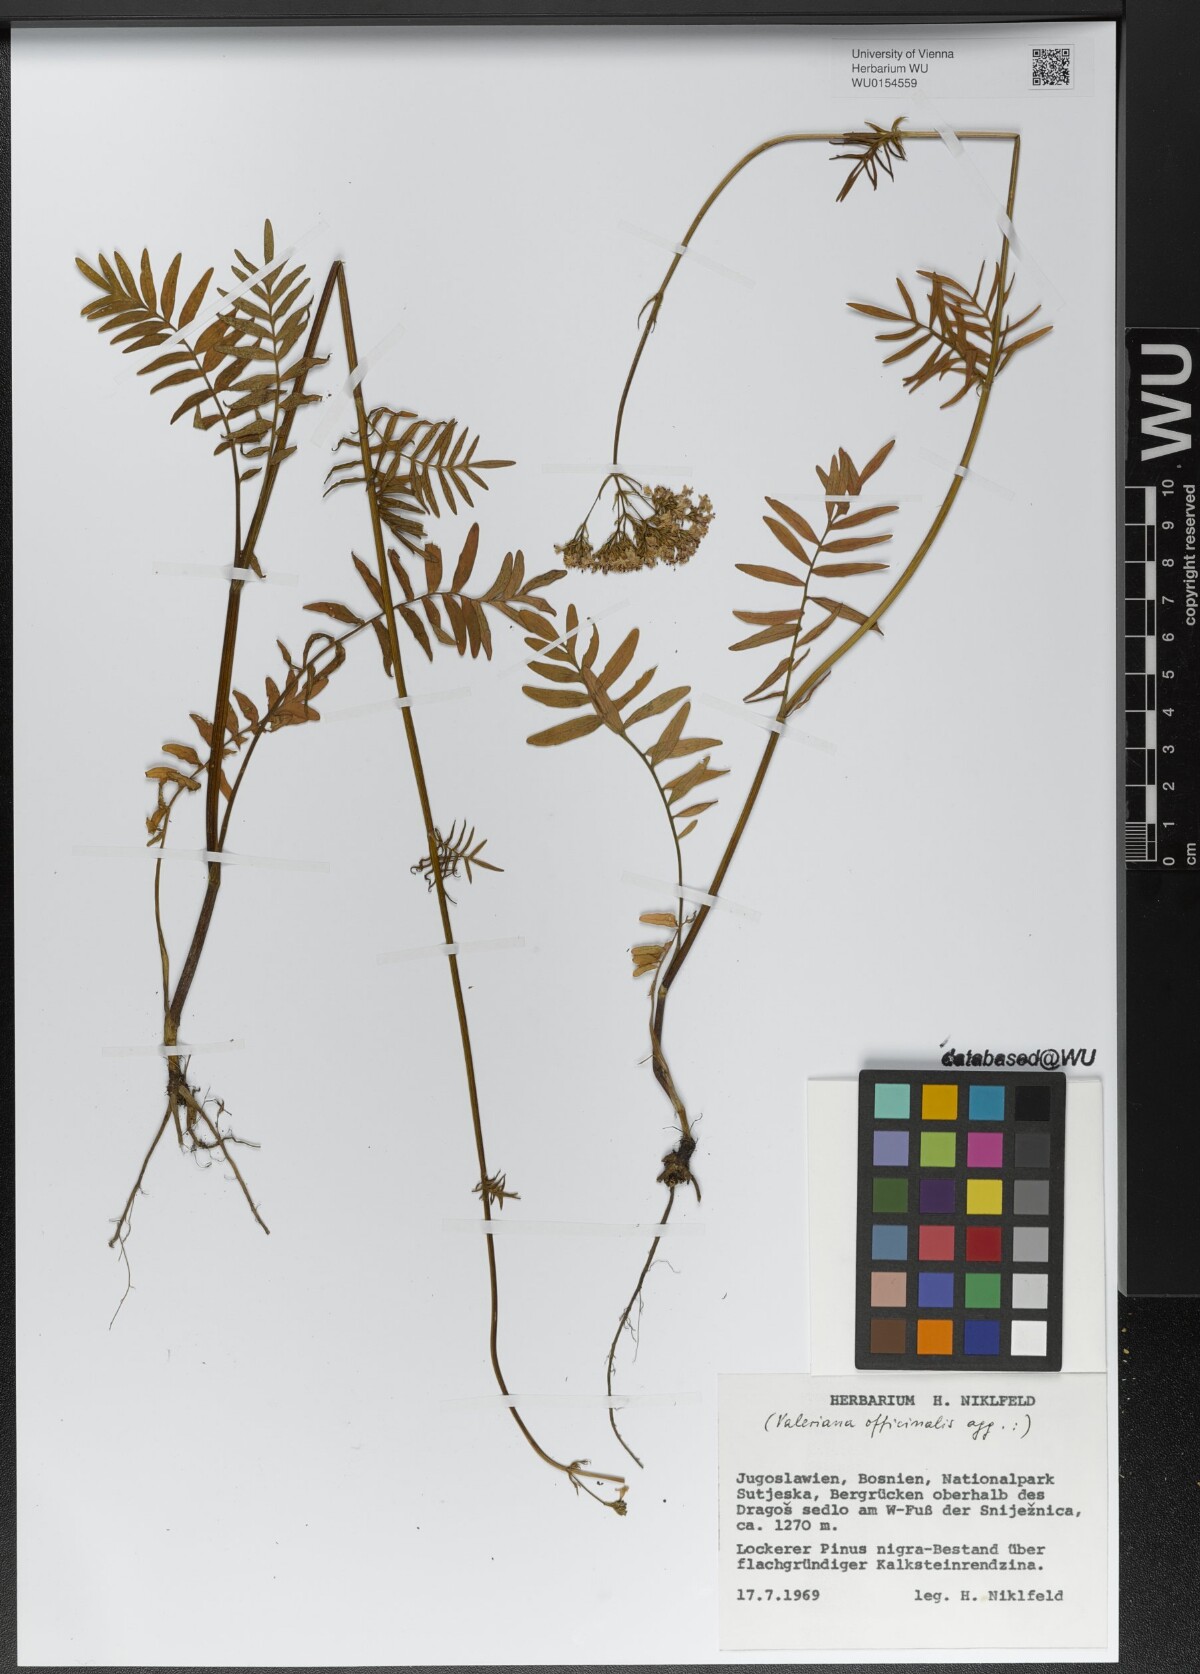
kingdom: Plantae
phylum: Tracheophyta
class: Magnoliopsida
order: Dipsacales
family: Caprifoliaceae
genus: Valeriana
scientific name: Valeriana officinalis
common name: Common valerian
